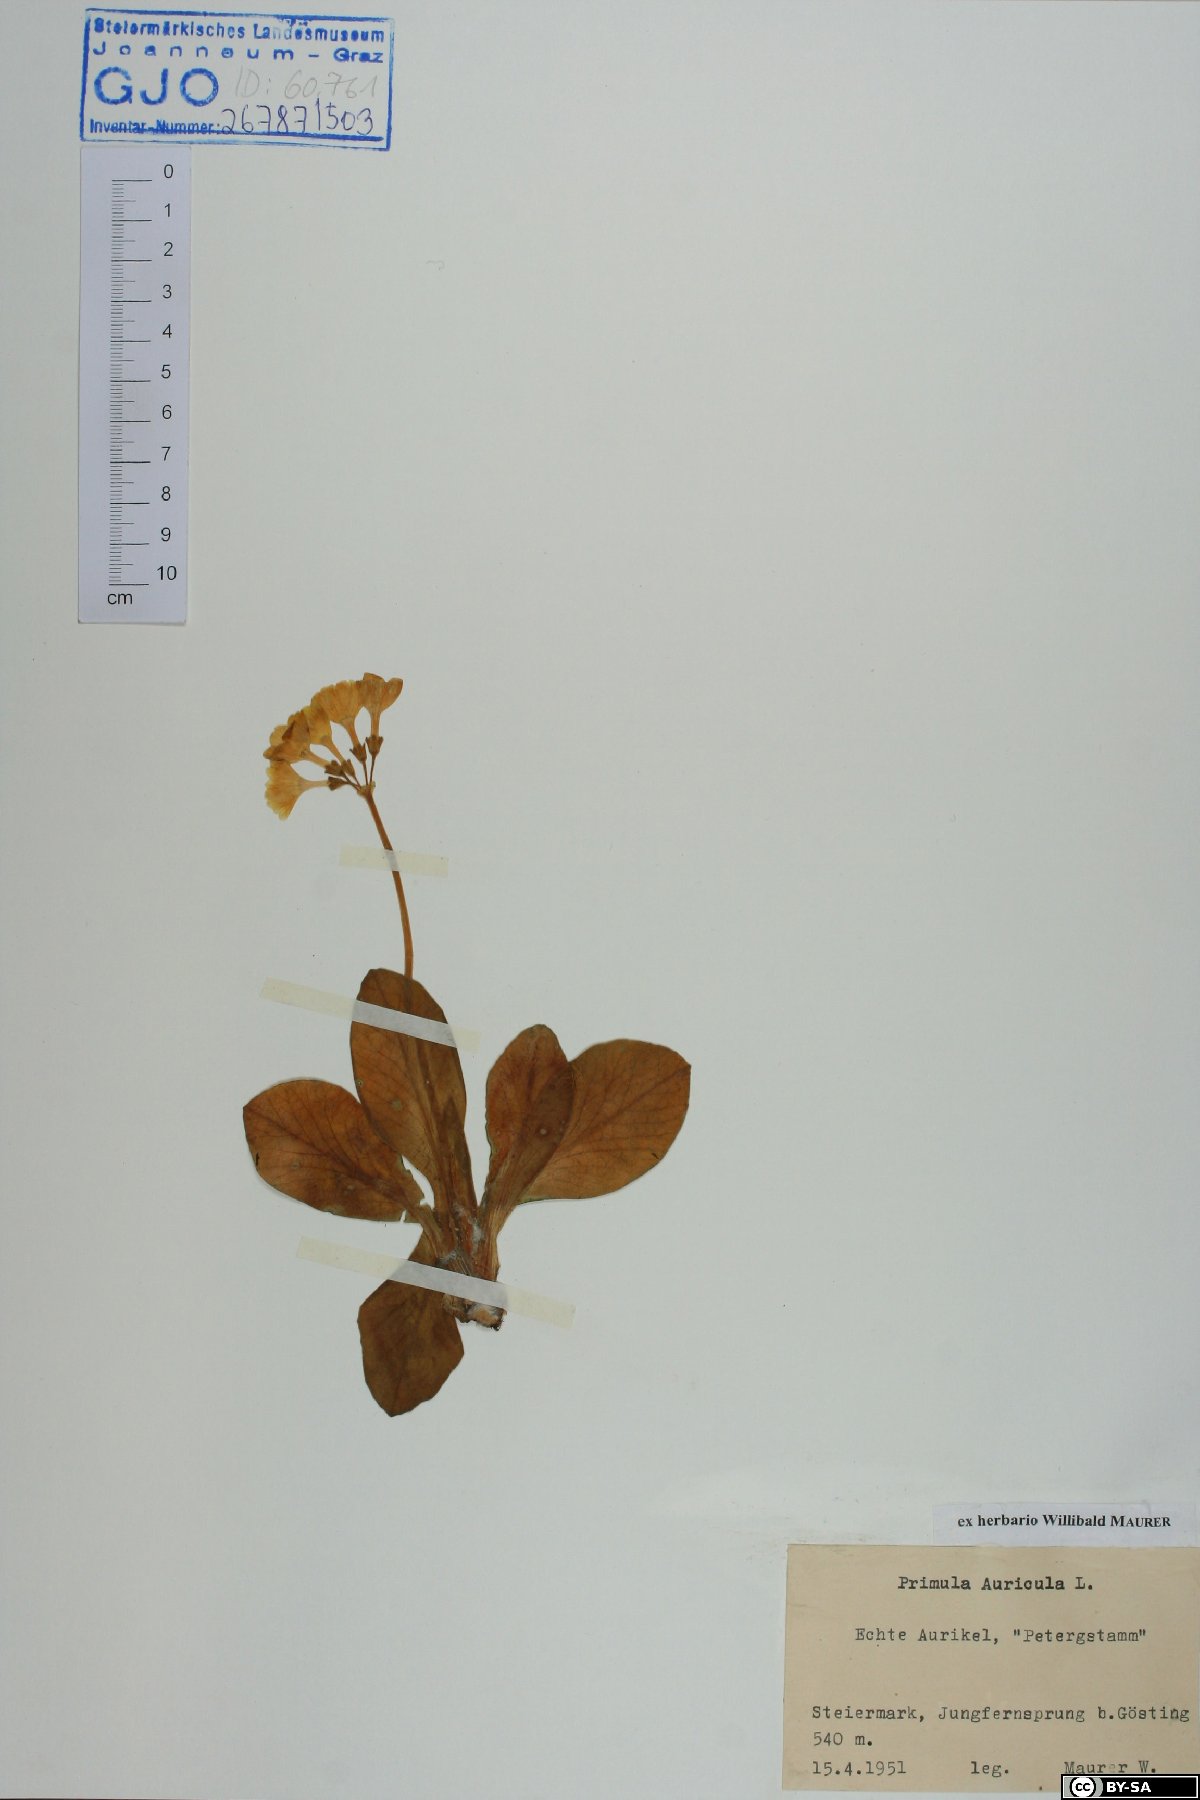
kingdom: Plantae
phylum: Tracheophyta
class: Magnoliopsida
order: Ericales
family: Primulaceae
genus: Primula
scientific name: Primula auricula
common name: Auricula
